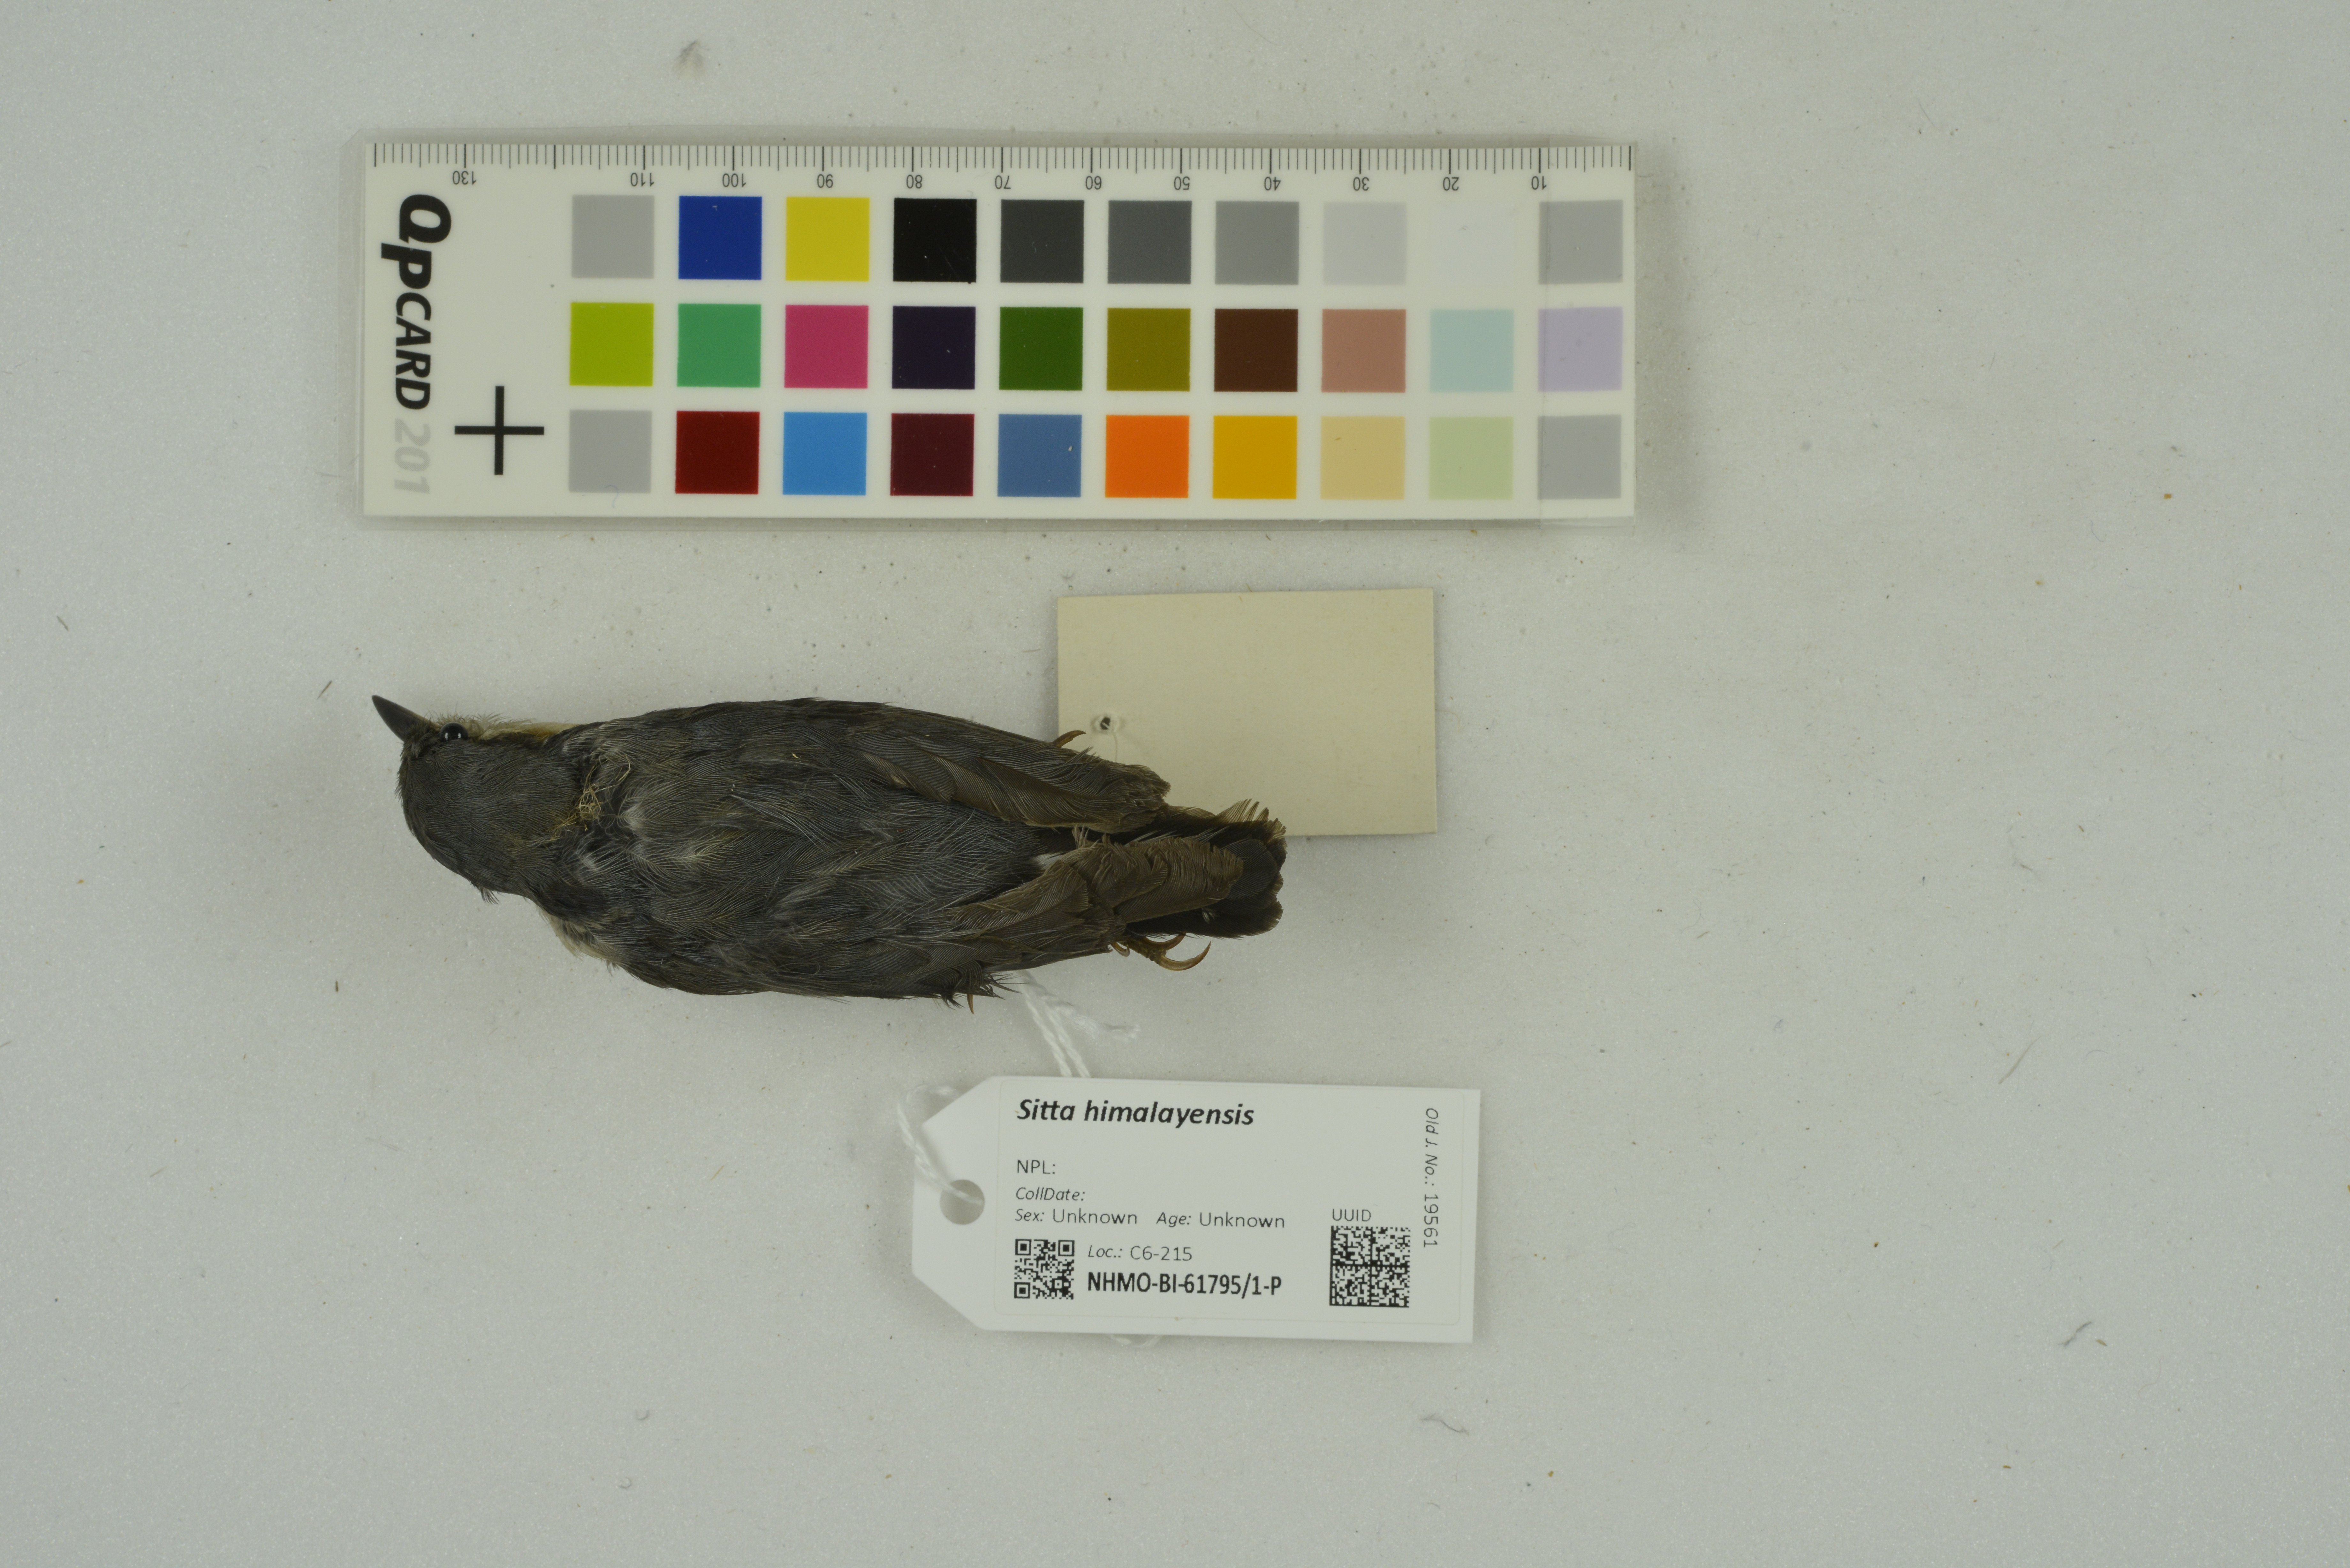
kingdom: Animalia
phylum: Chordata
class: Aves
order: Passeriformes
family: Sittidae
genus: Sitta
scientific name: Sitta himalayensis
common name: White-tailed nuthatch
